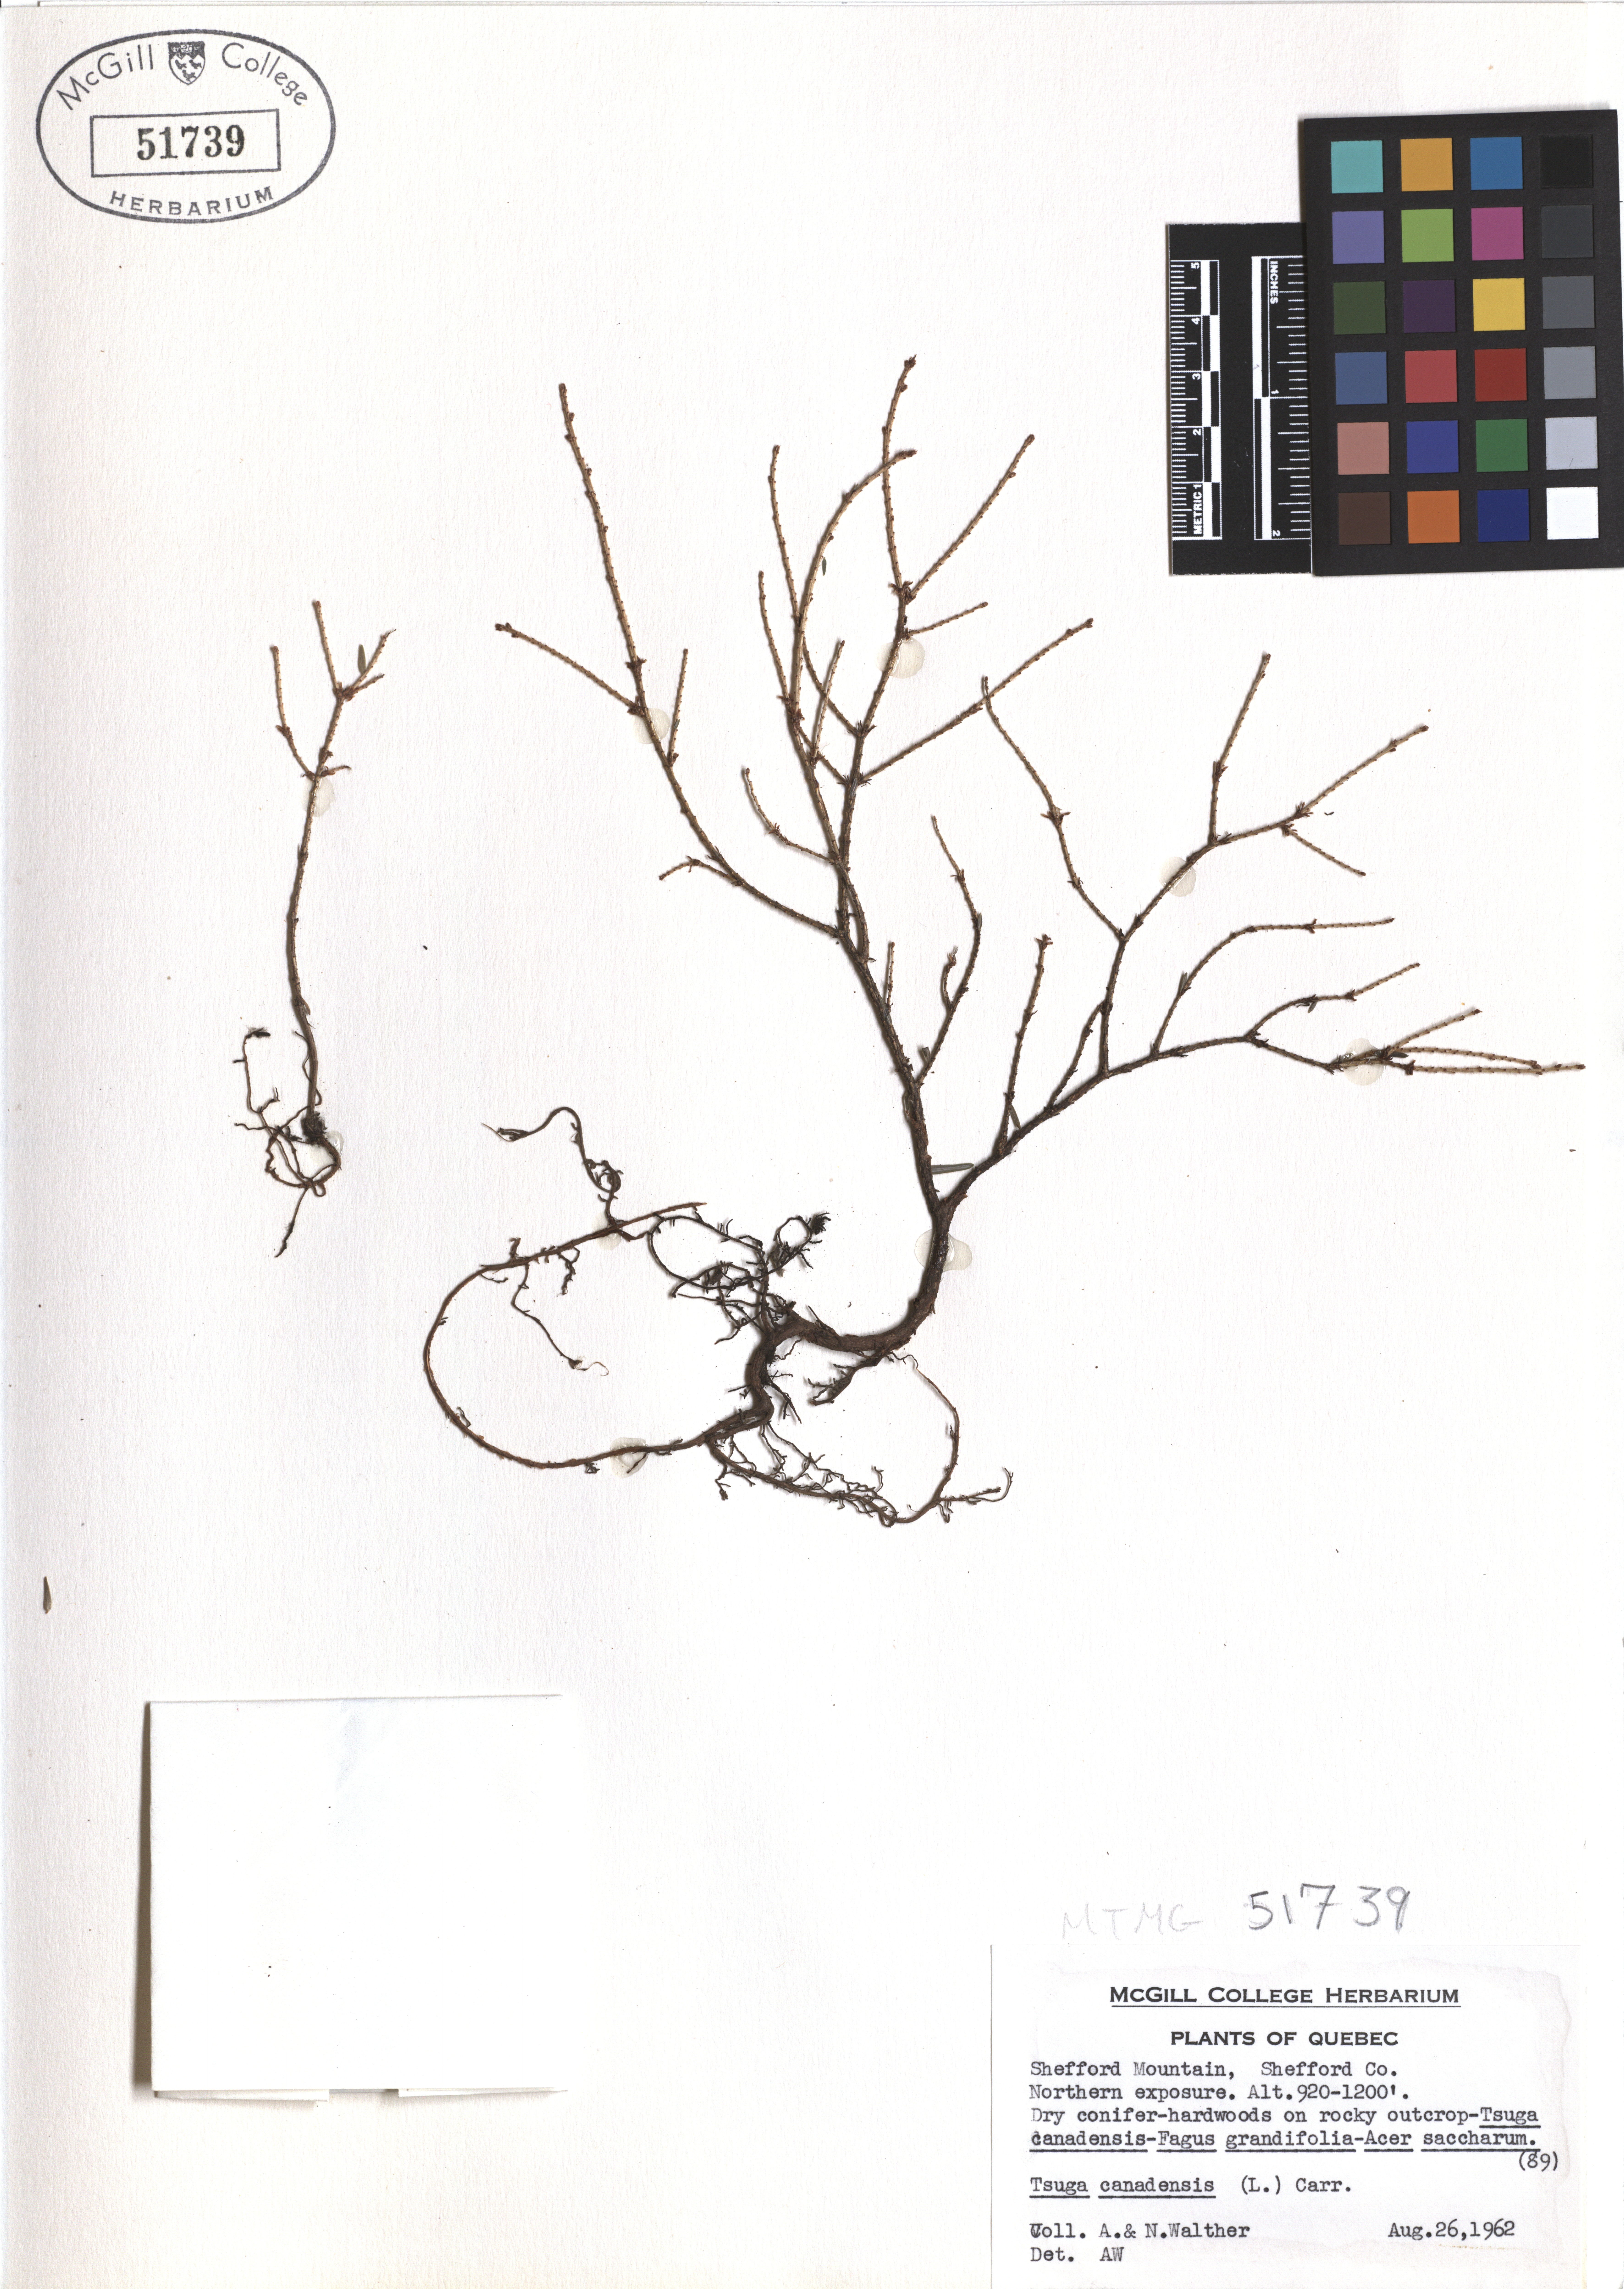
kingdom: Plantae
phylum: Tracheophyta
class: Pinopsida
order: Pinales
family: Pinaceae
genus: Tsuga
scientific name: Tsuga canadensis
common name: Eastern hemlock
